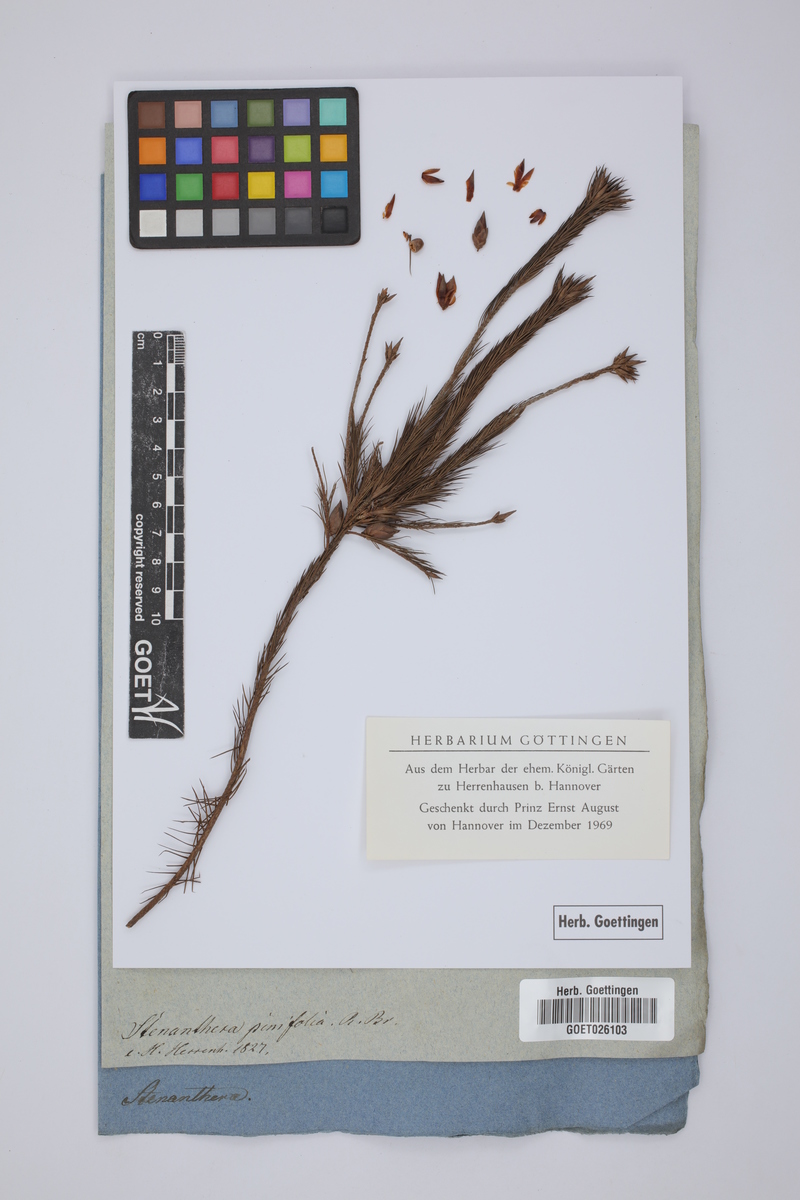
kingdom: Plantae
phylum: Tracheophyta
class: Magnoliopsida
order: Ericales
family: Ericaceae
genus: Stenanthera
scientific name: Stenanthera pinifolia
